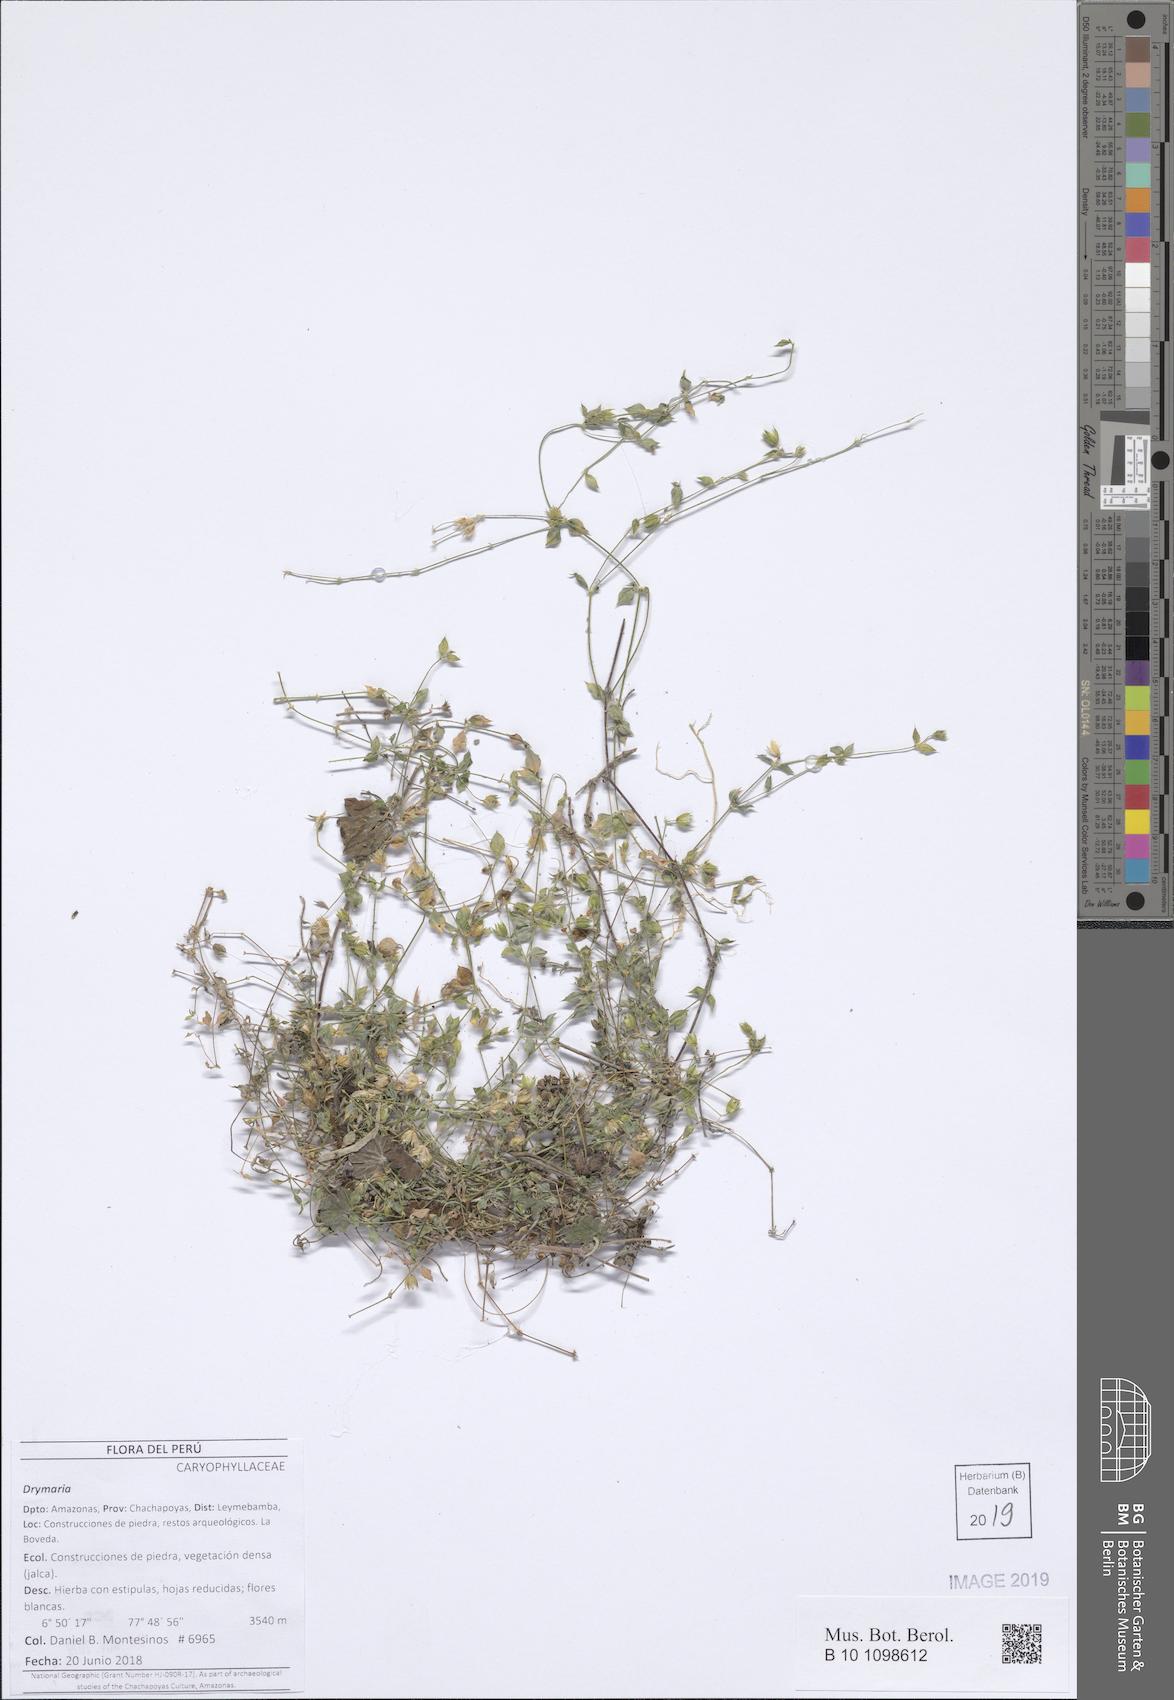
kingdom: Plantae
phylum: Tracheophyta
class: Magnoliopsida
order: Caryophyllales
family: Caryophyllaceae
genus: Drymaria
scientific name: Drymaria
